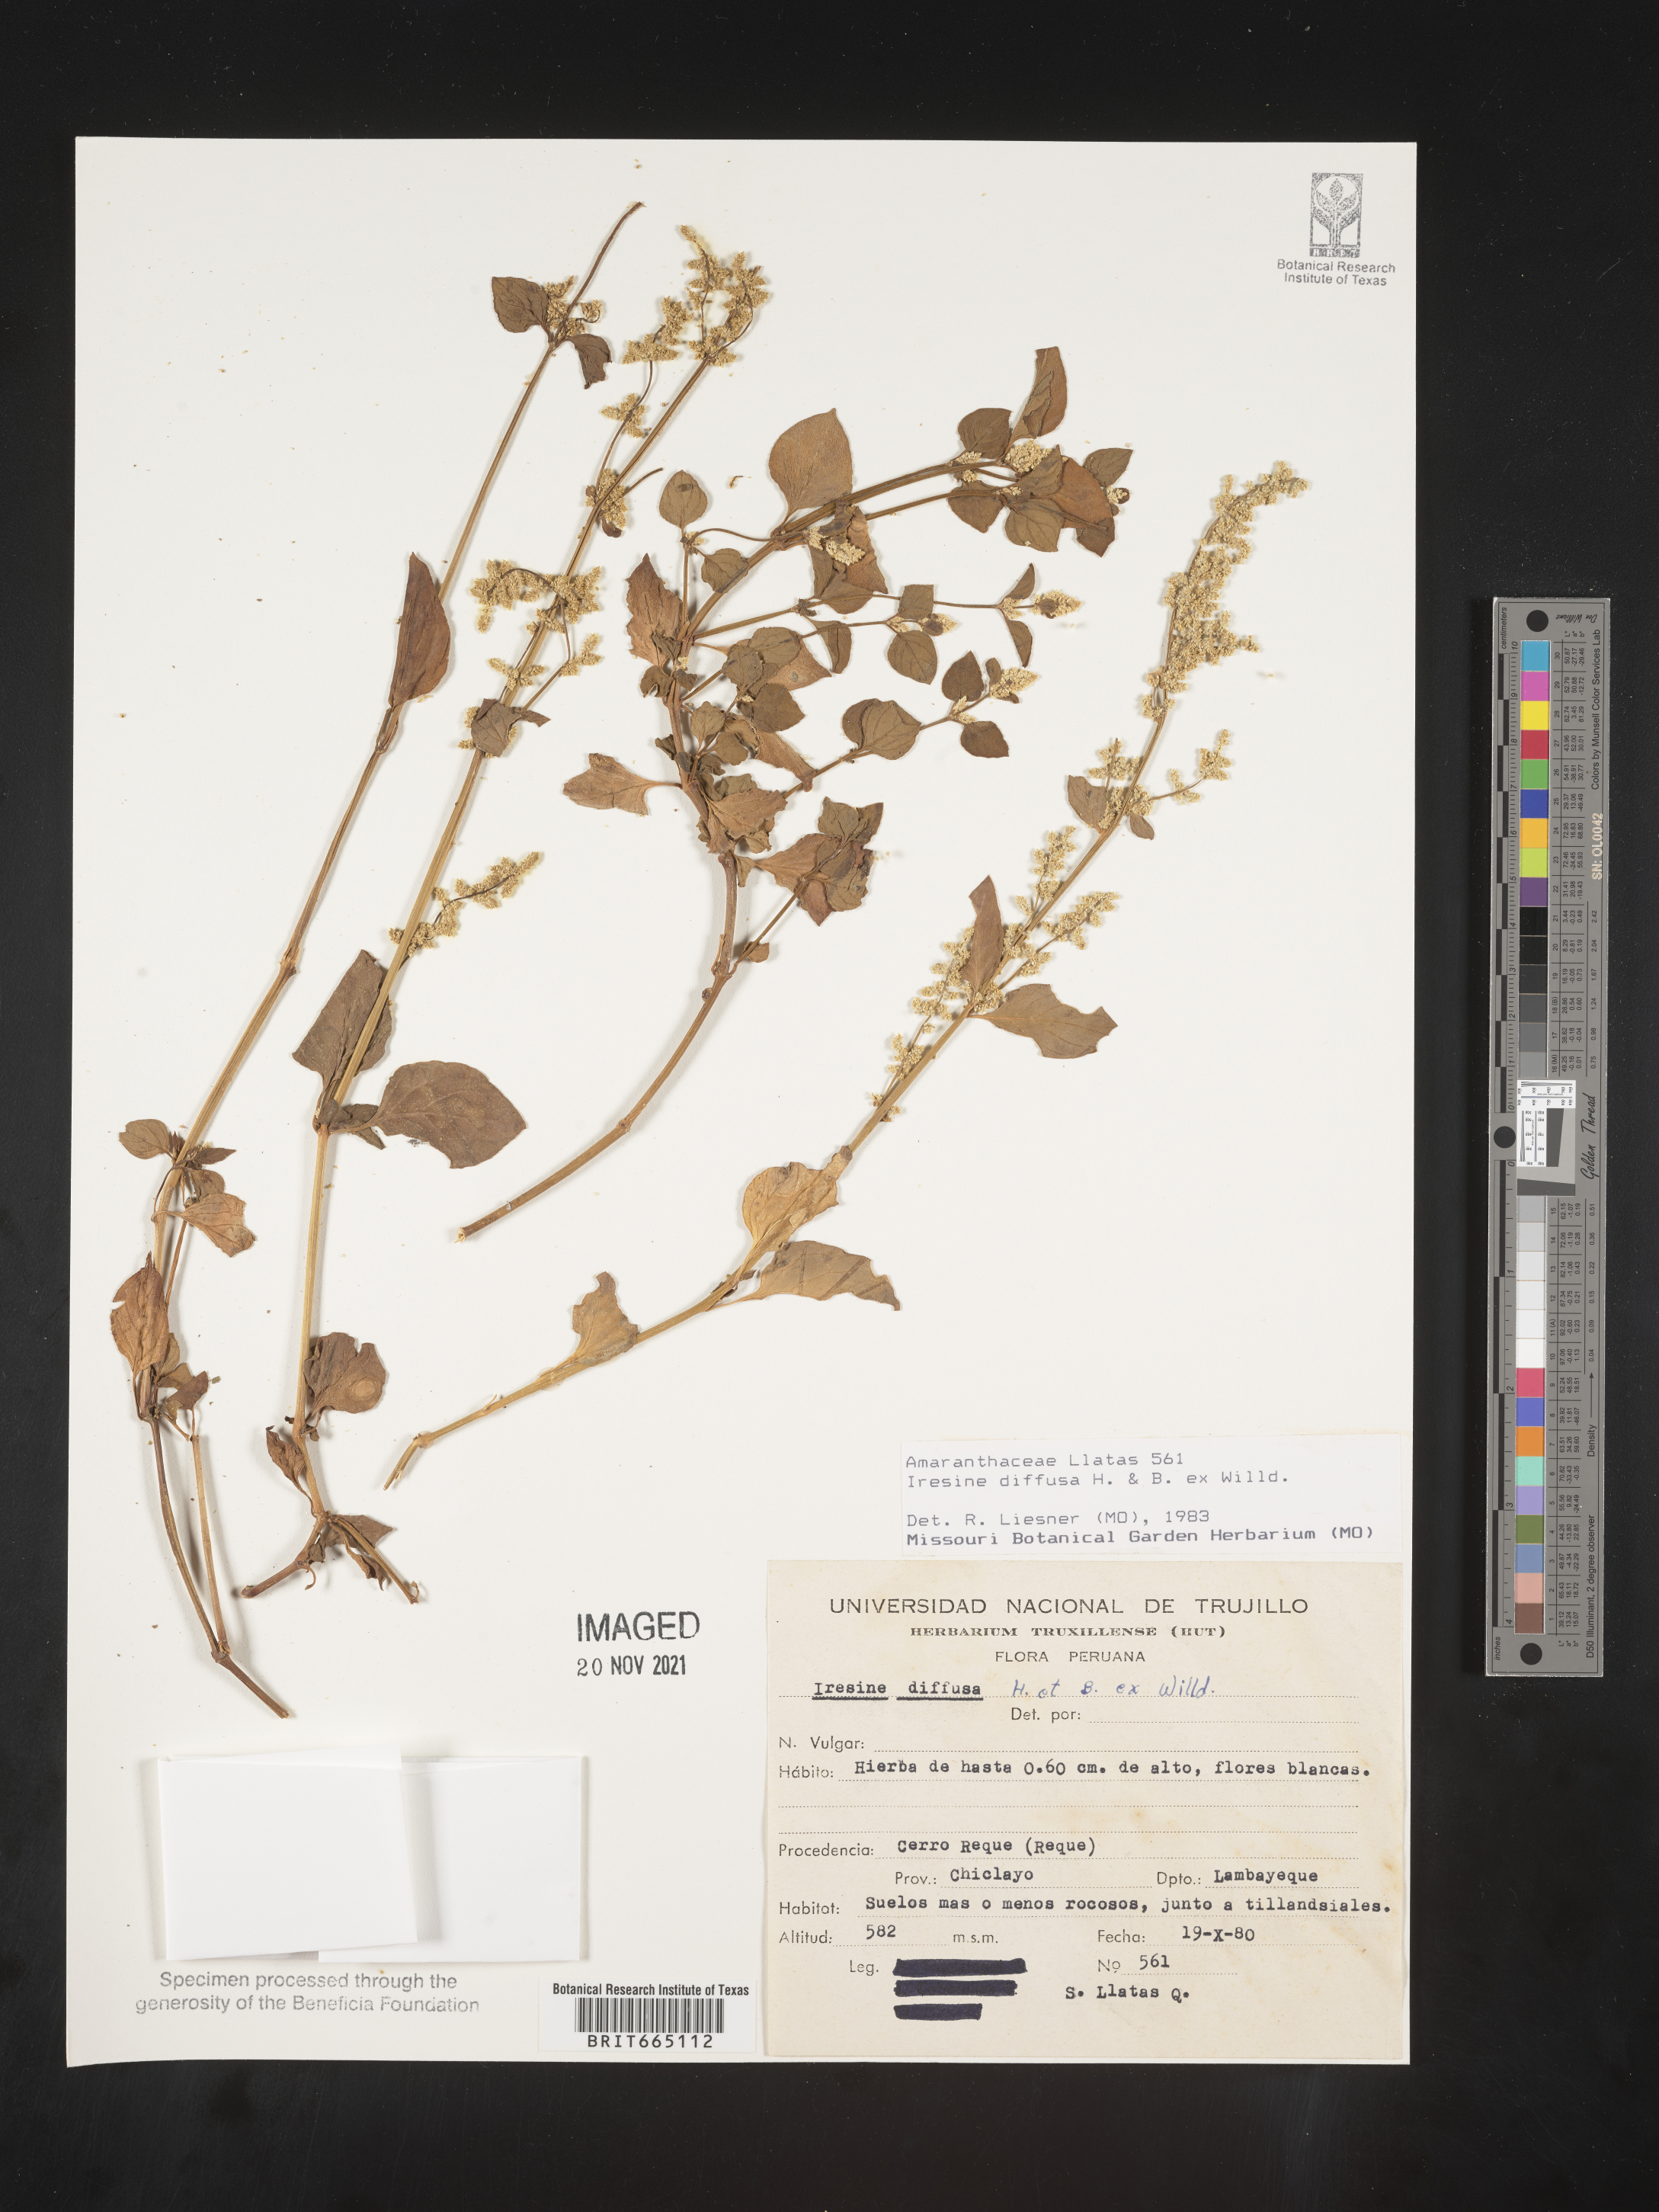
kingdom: Plantae
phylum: Tracheophyta
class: Magnoliopsida
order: Caryophyllales
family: Amaranthaceae
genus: Iresine
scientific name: Iresine
